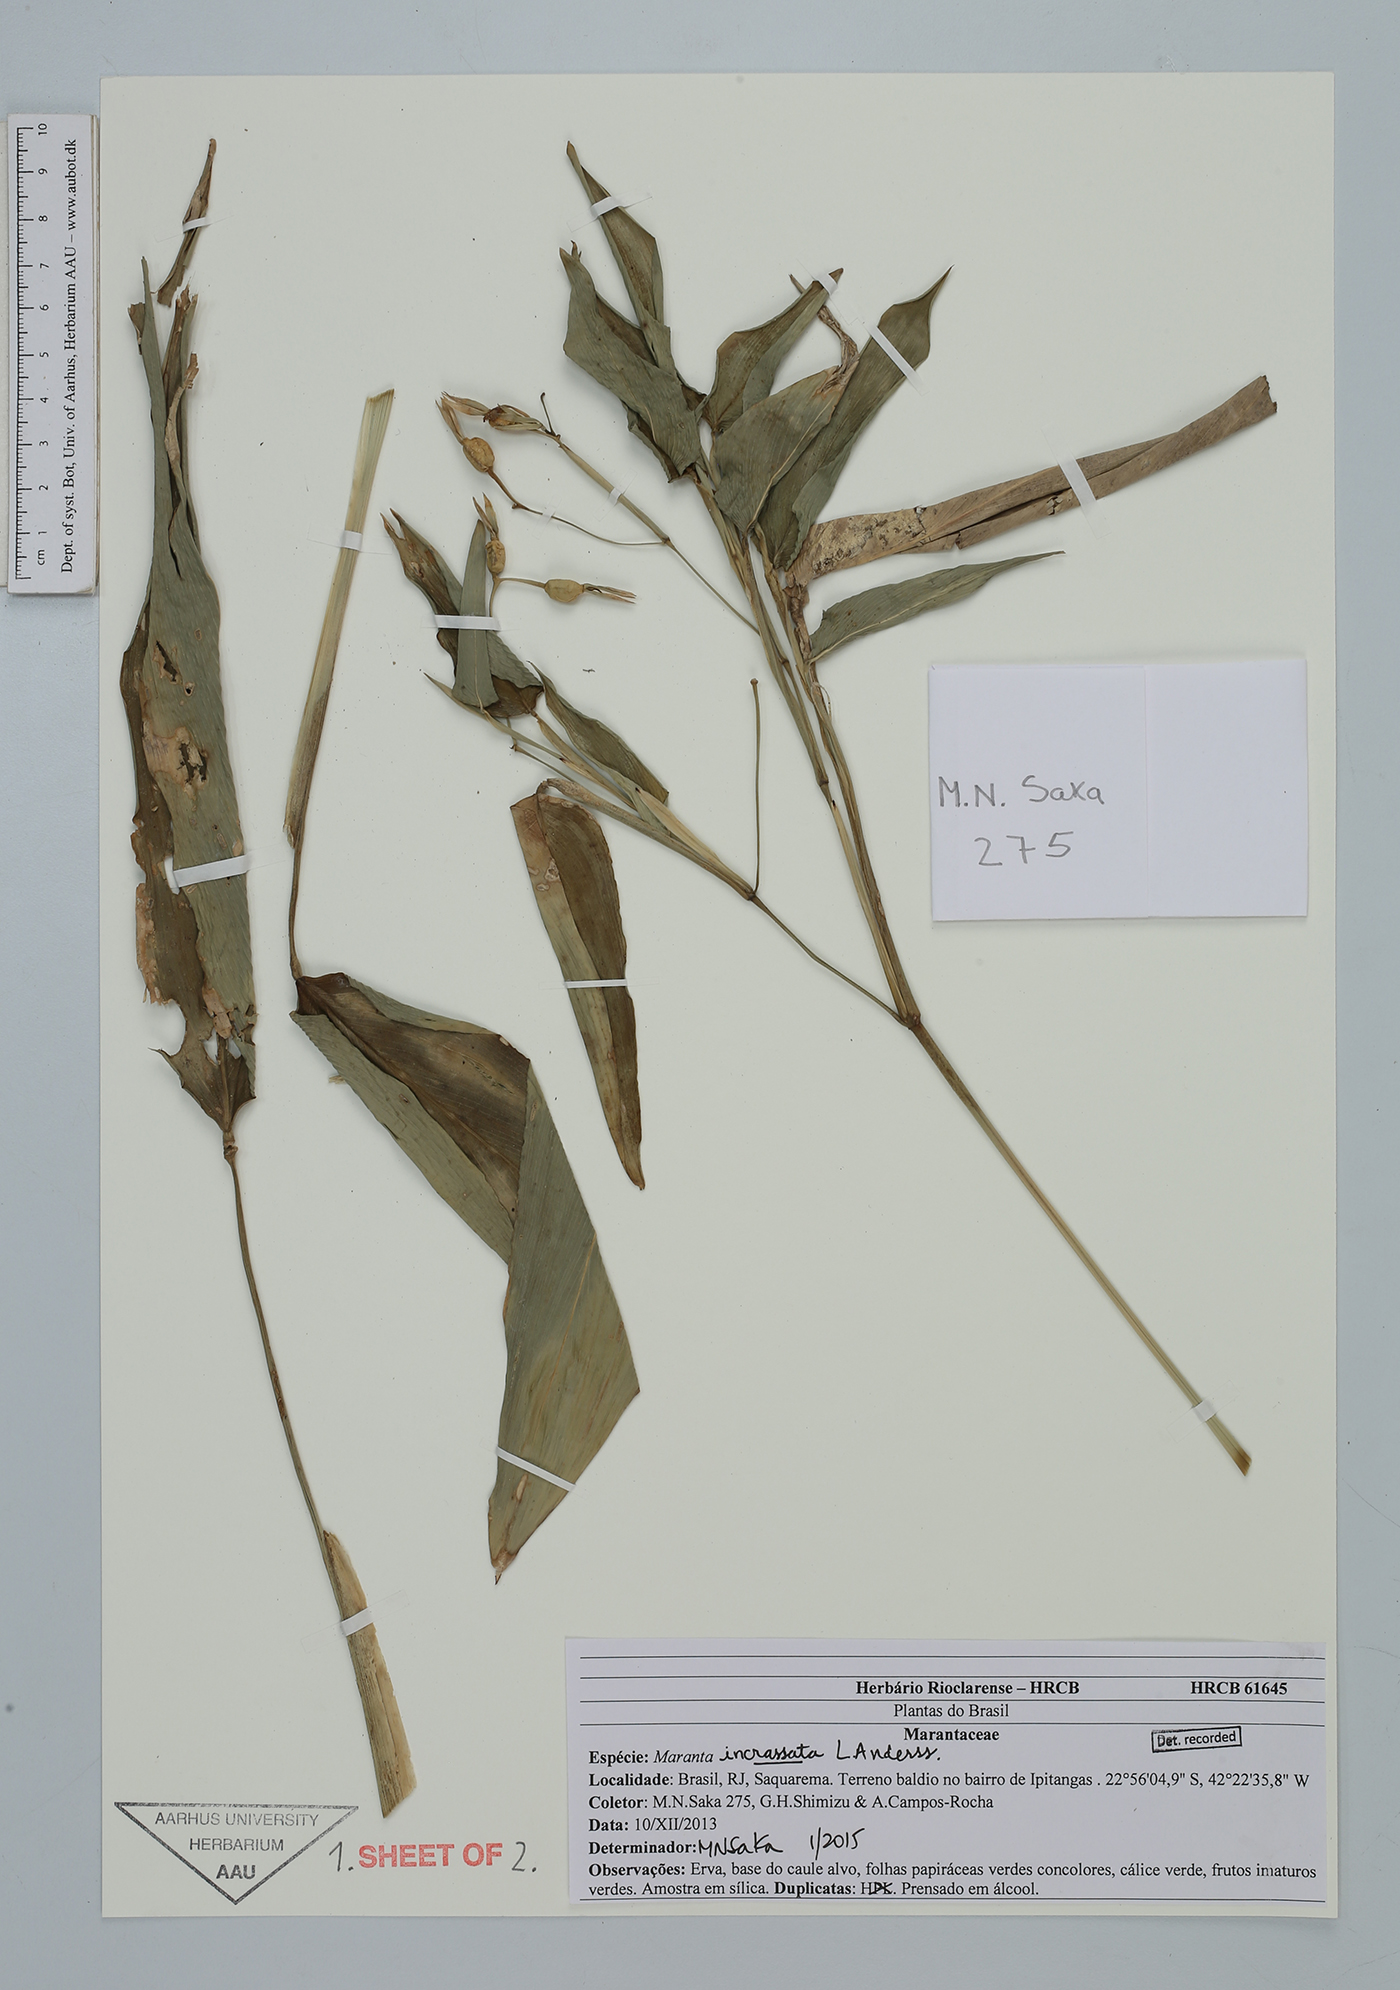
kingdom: Plantae
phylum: Tracheophyta
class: Liliopsida
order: Zingiberales
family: Marantaceae
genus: Maranta
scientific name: Maranta incrassata
